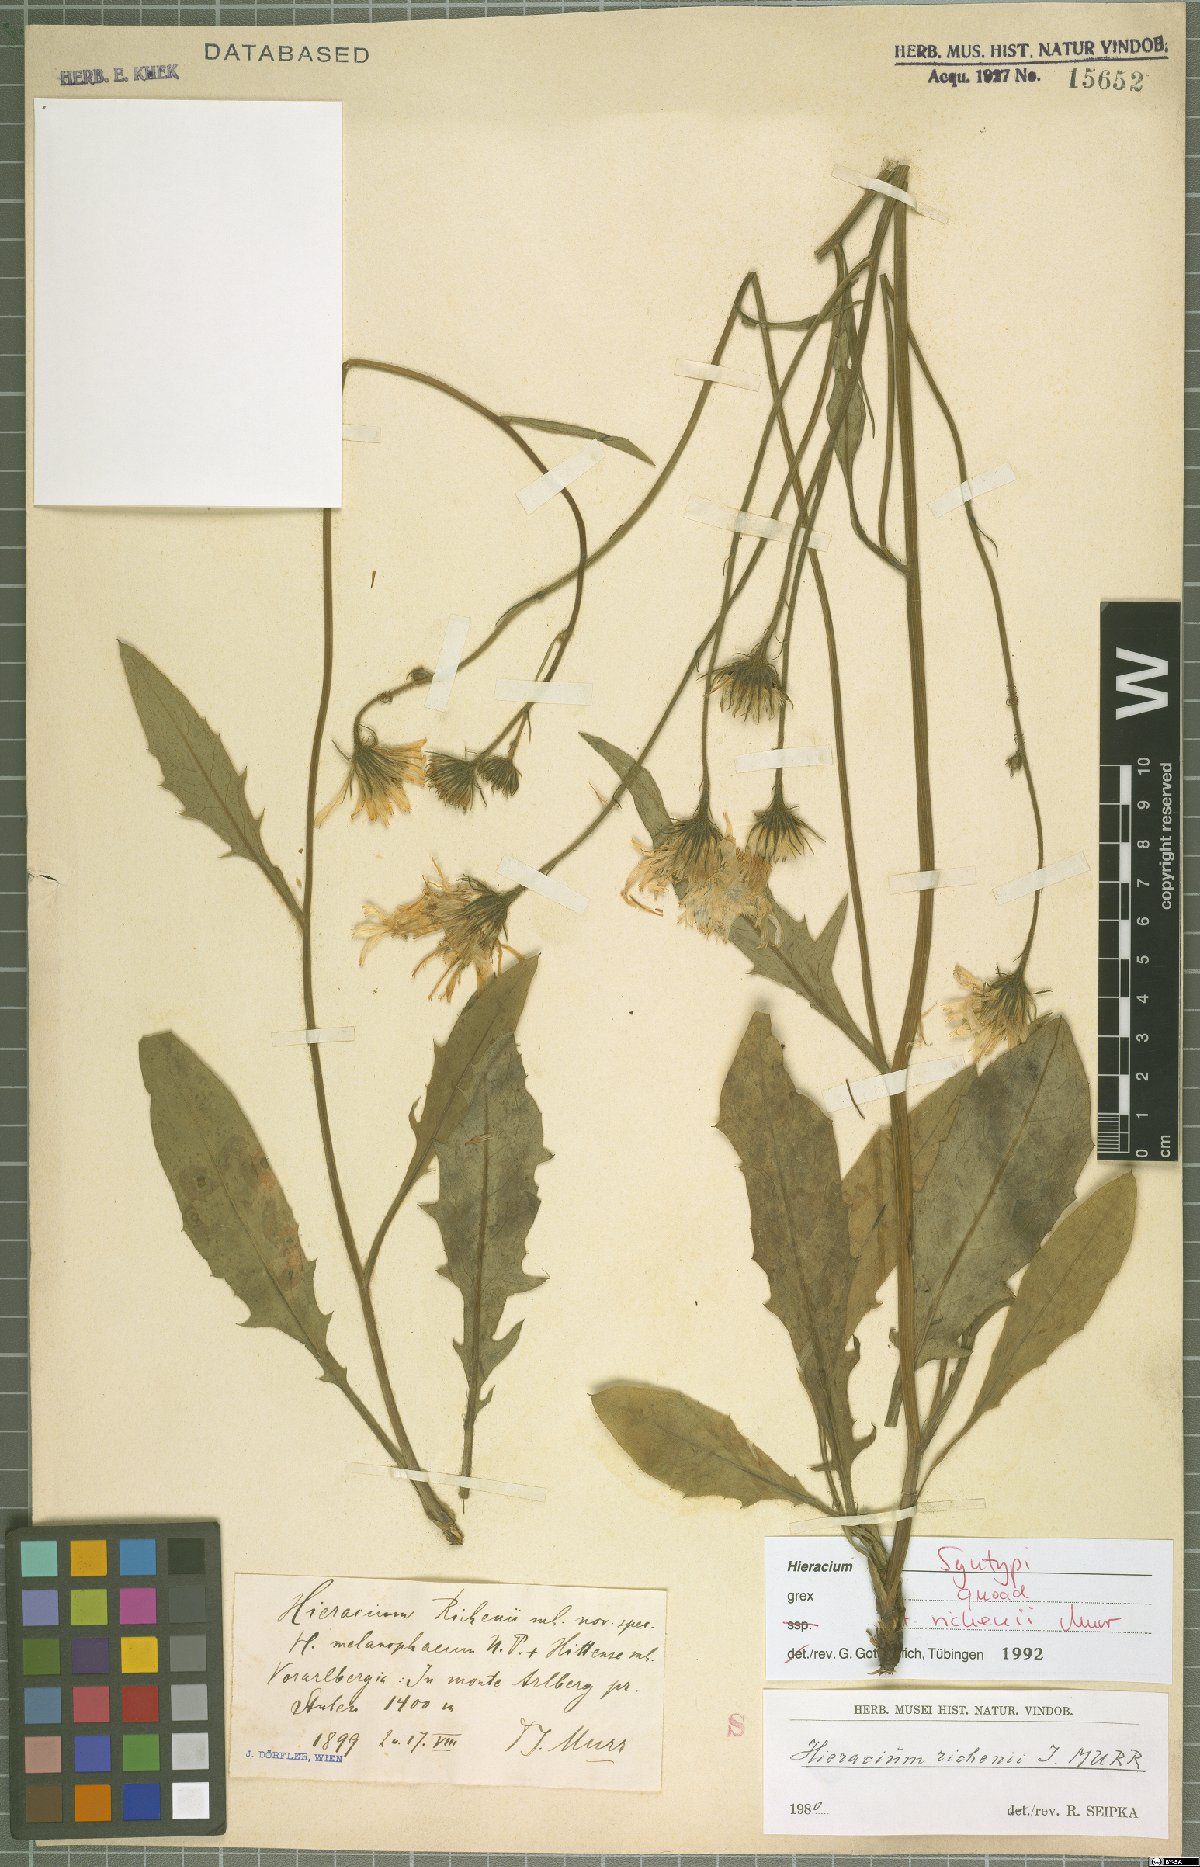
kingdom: Plantae
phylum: Tracheophyta
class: Magnoliopsida
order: Asterales
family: Asteraceae
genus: Hieracium
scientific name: Hieracium richenii
